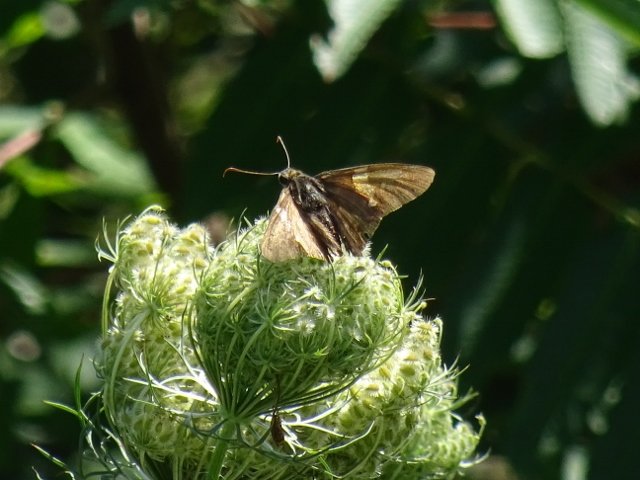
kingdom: Animalia
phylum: Arthropoda
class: Insecta
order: Lepidoptera
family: Hesperiidae
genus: Epargyreus
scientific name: Epargyreus clarus
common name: Silver-spotted Skipper
